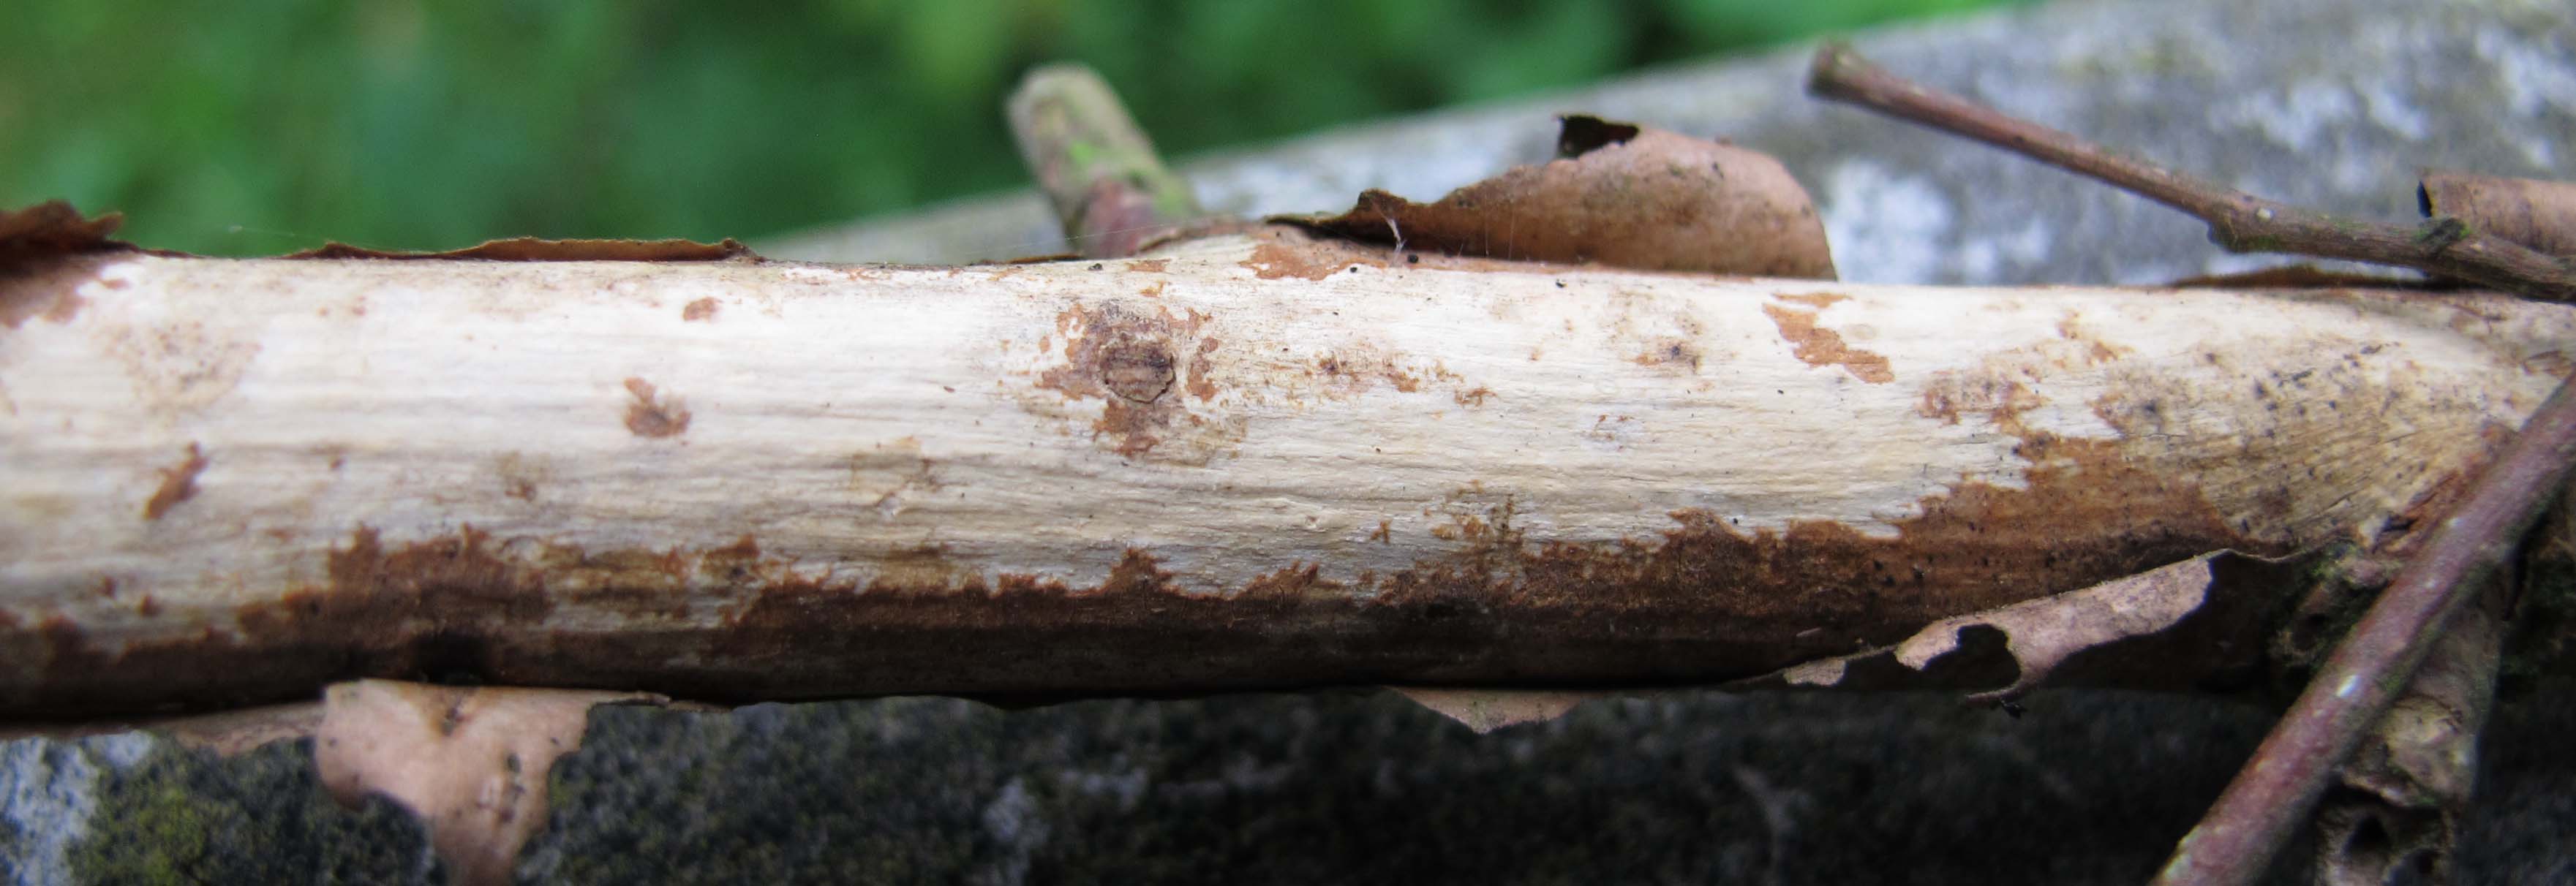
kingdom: Fungi
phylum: Basidiomycota
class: Agaricomycetes
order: Corticiales
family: Vuilleminiaceae
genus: Vuilleminia
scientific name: Vuilleminia coryli
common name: hassel-barksprænger
